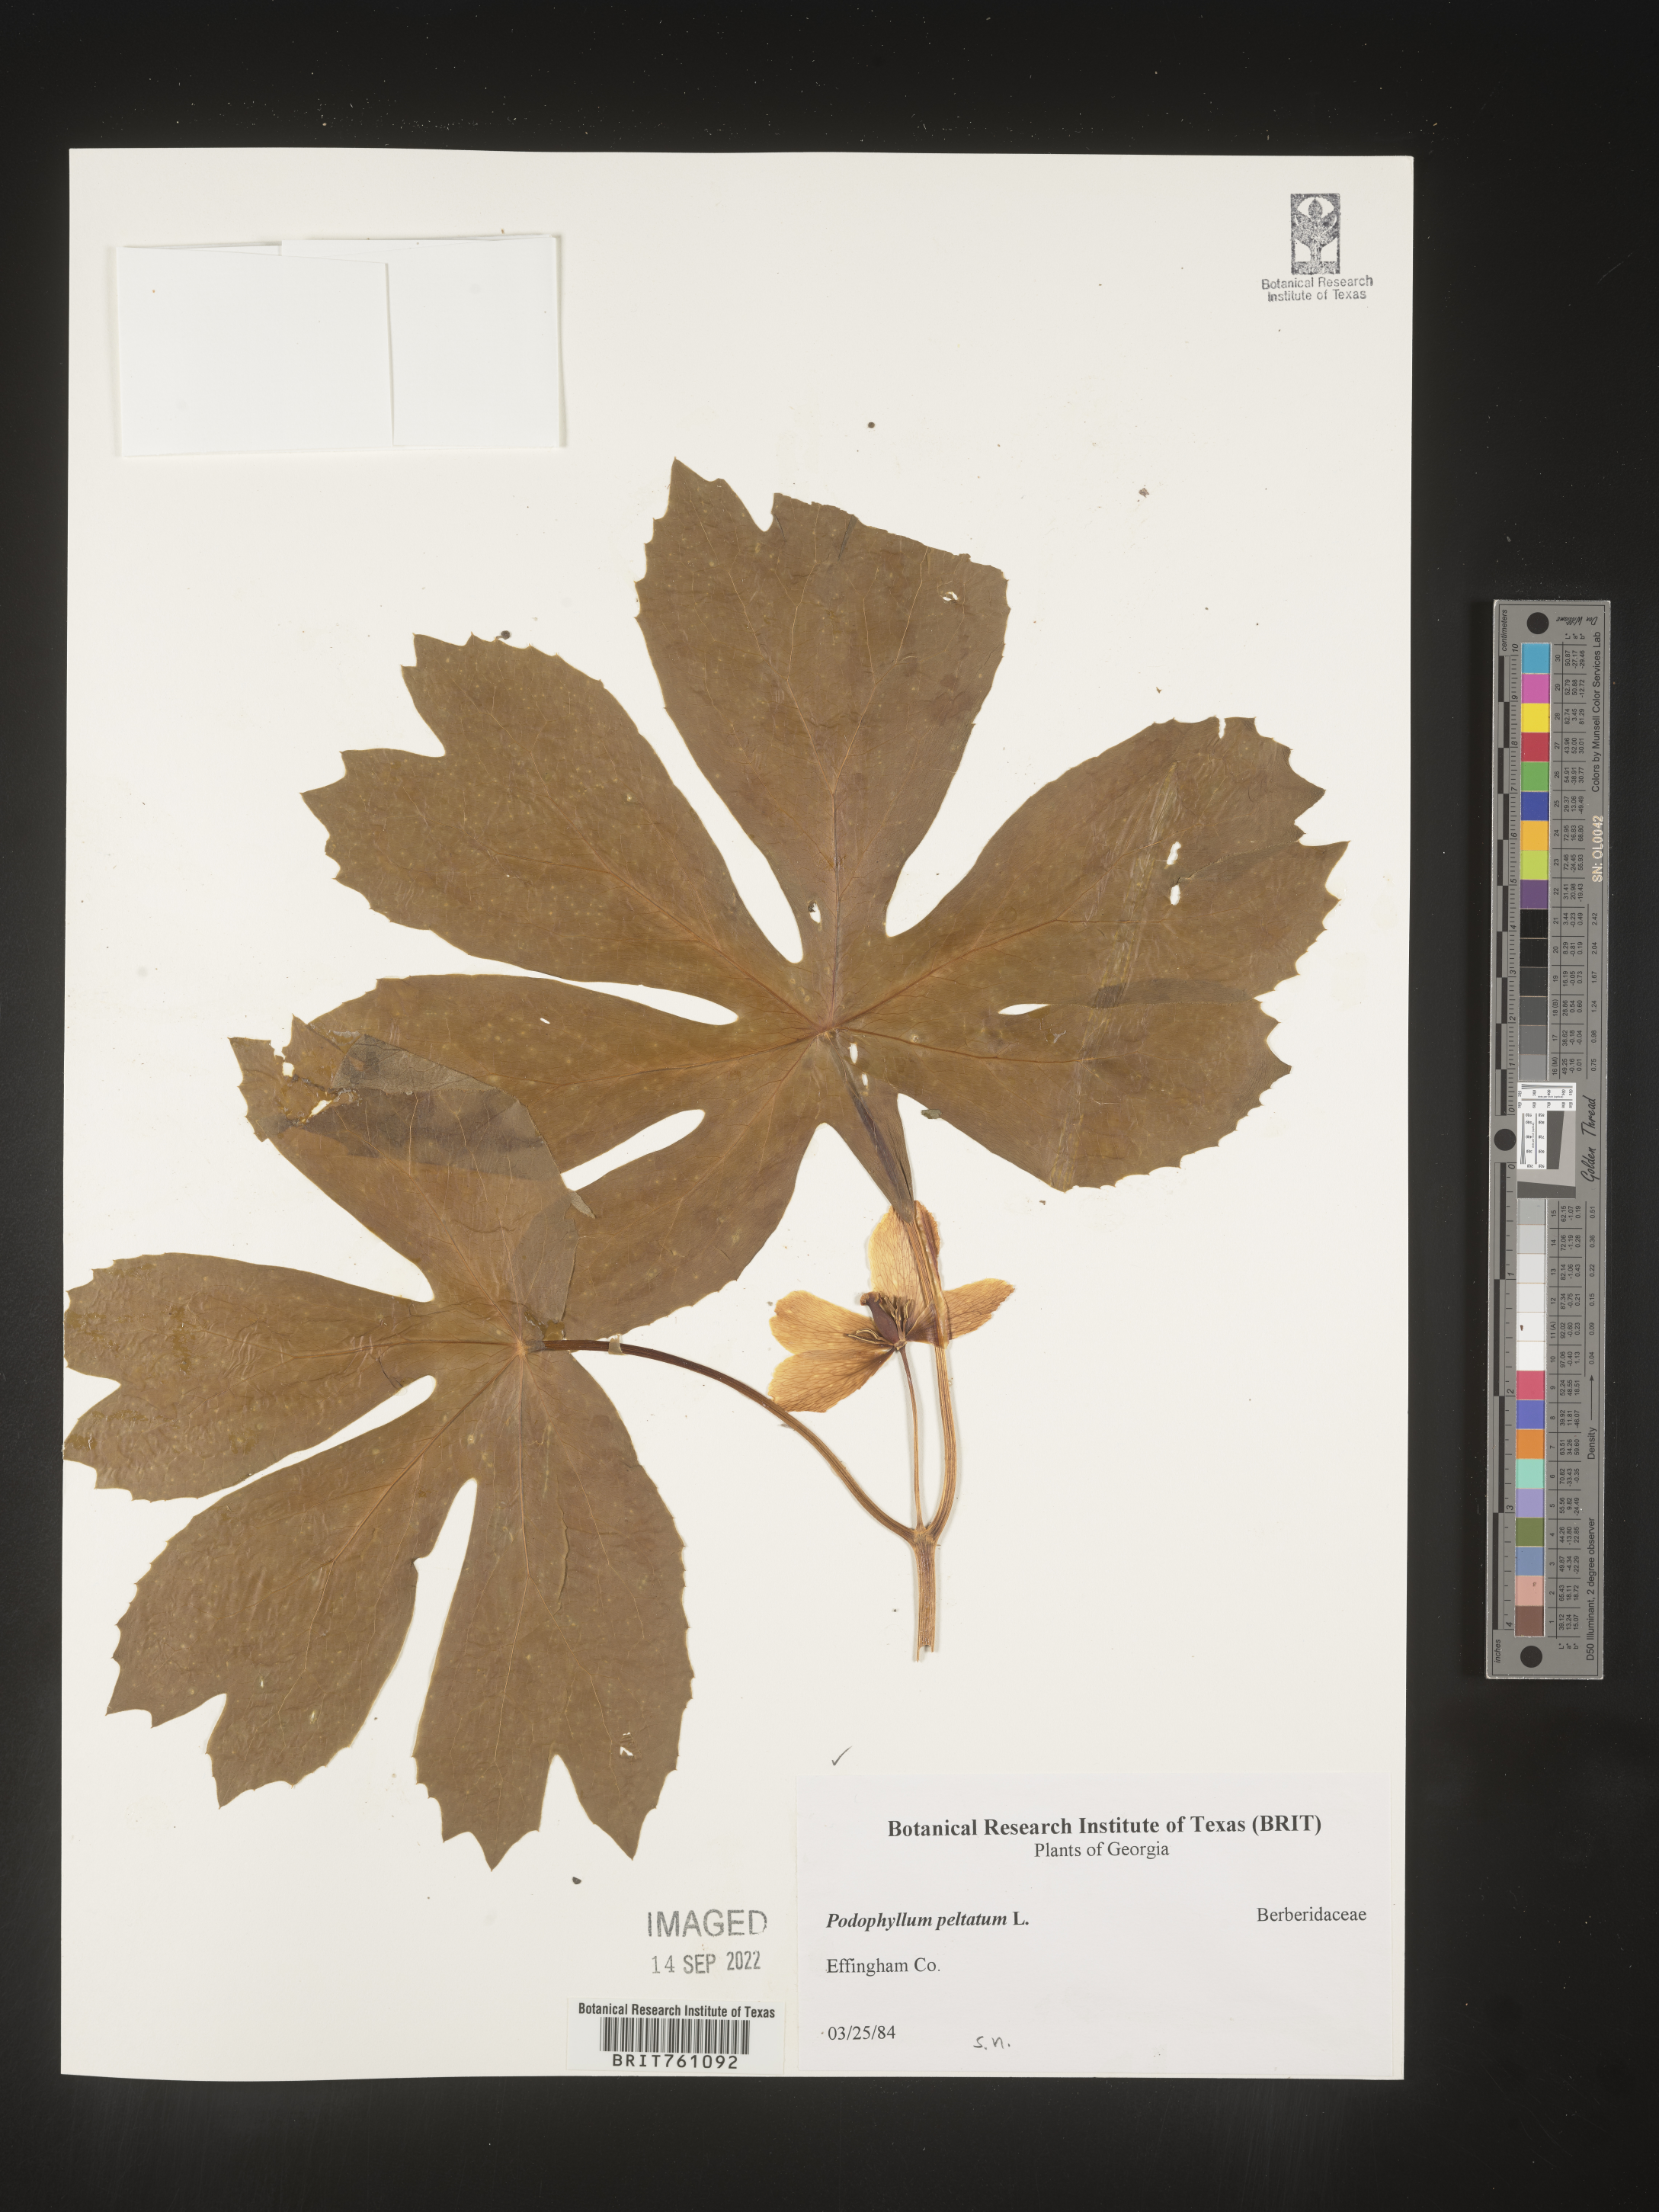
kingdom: Plantae
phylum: Tracheophyta
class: Magnoliopsida
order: Ranunculales
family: Berberidaceae
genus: Podophyllum
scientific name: Podophyllum peltatum
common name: Wild mandrake
